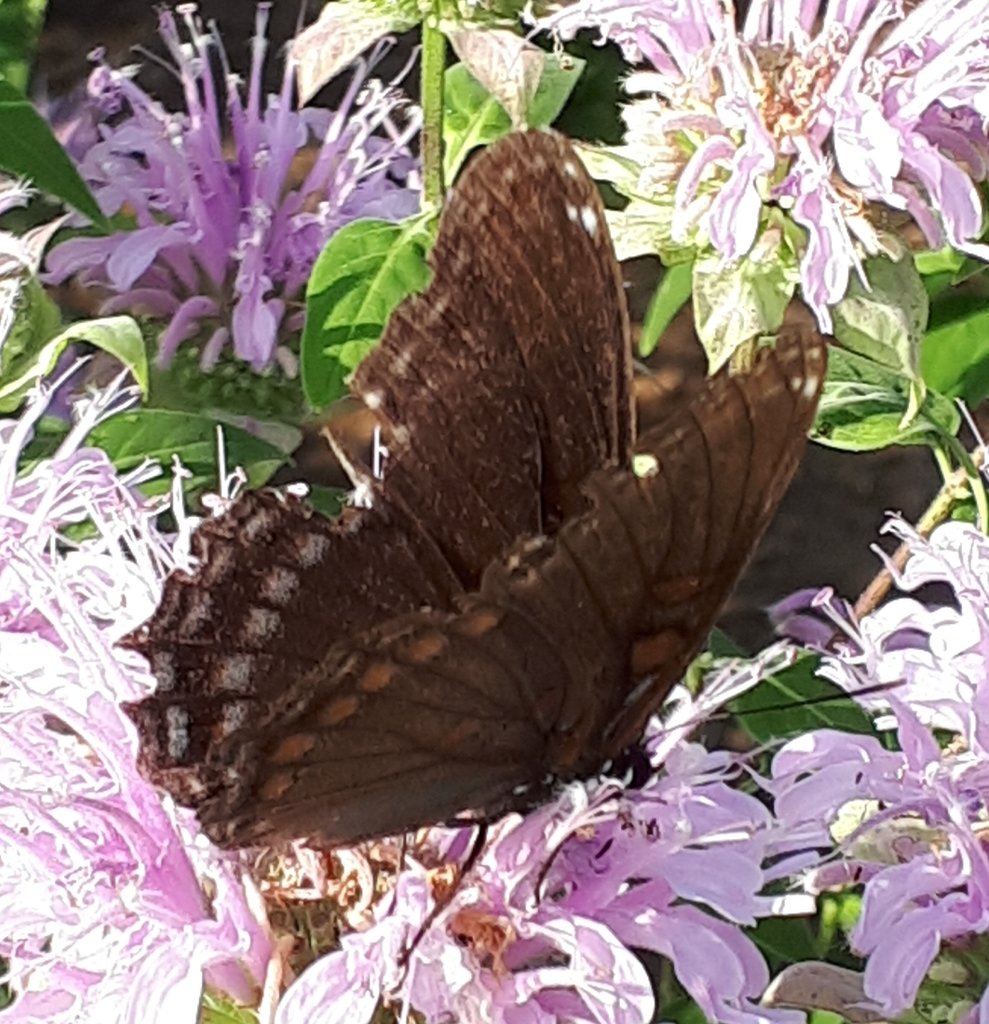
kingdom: Animalia
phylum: Arthropoda
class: Insecta
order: Lepidoptera
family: Nymphalidae
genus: Limenitis
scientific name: Limenitis arthemis
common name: Red-spotted Admiral
